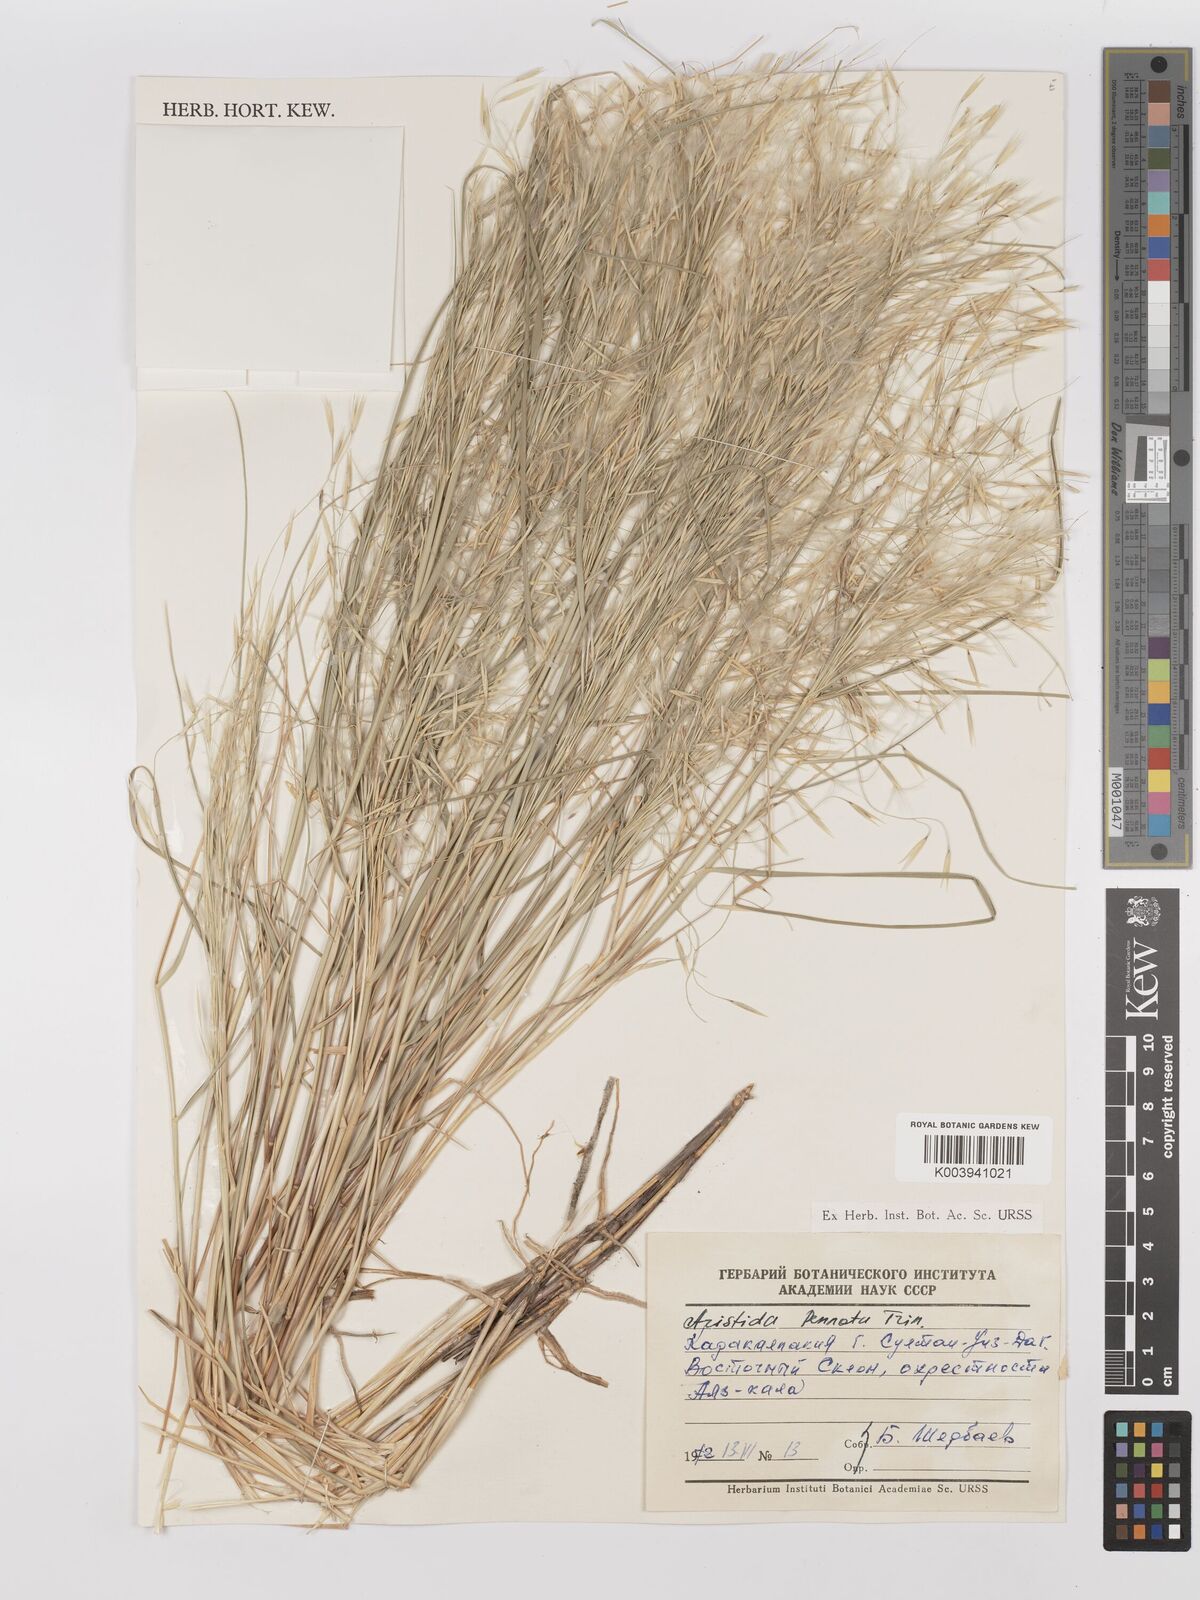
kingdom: Plantae
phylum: Tracheophyta
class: Liliopsida
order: Poales
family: Poaceae
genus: Stipagrostis
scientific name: Stipagrostis pennata
